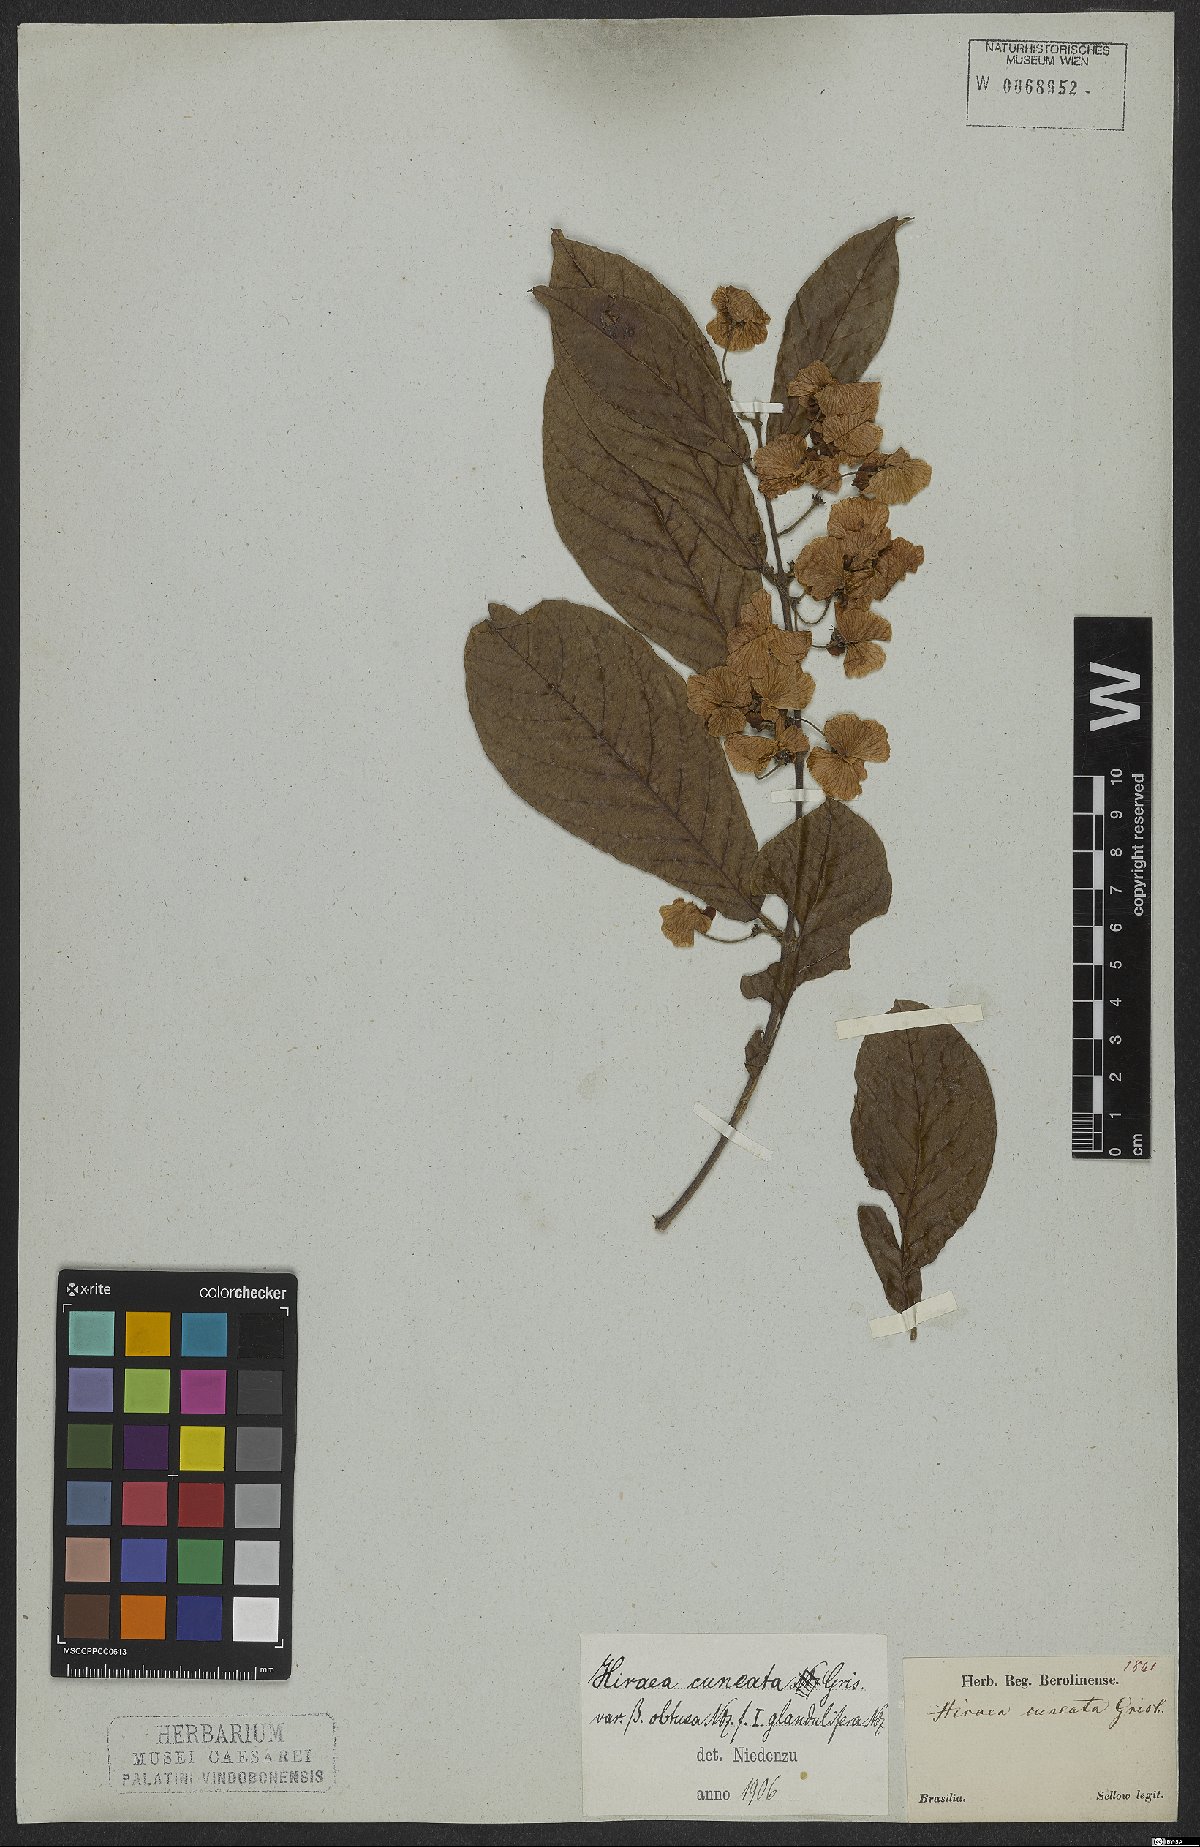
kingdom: Plantae
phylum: Tracheophyta
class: Magnoliopsida
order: Malpighiales
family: Malpighiaceae
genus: Hiraea
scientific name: Hiraea cuneata
